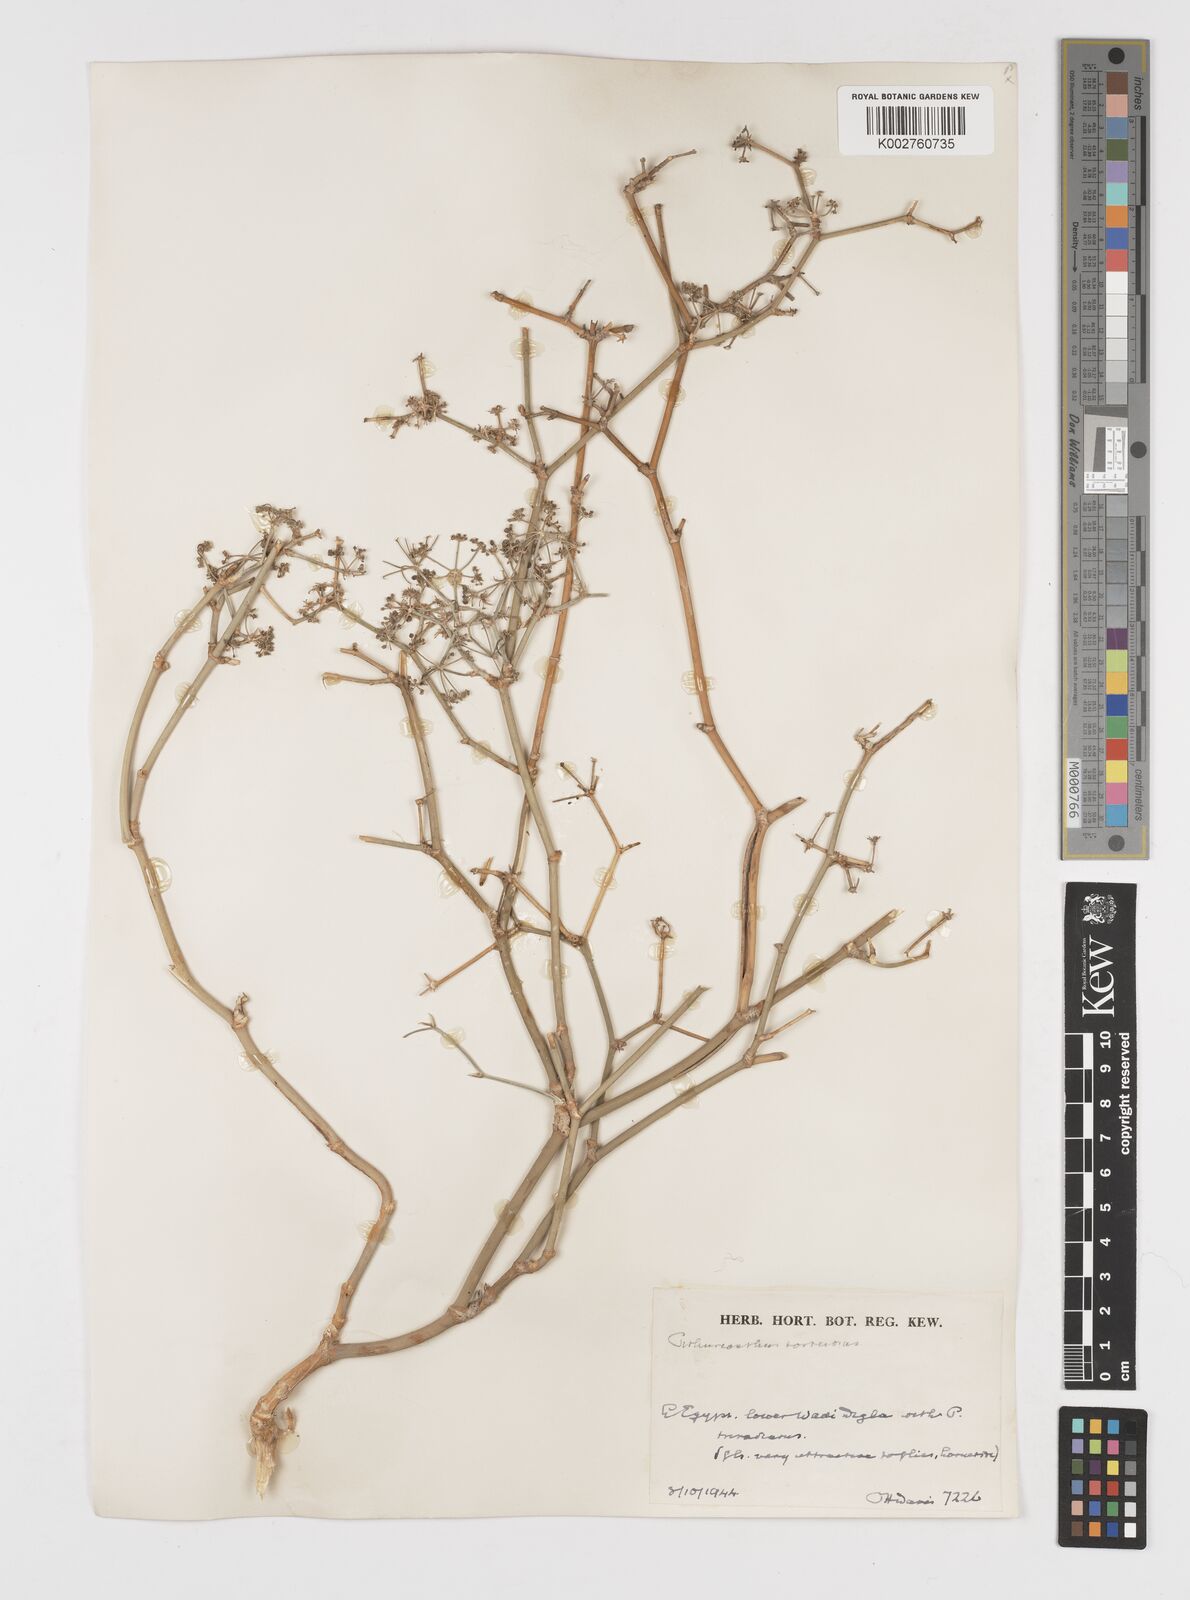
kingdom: Plantae
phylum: Tracheophyta
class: Magnoliopsida
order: Apiales
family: Apiaceae
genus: Deverra
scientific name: Deverra tortuosa
